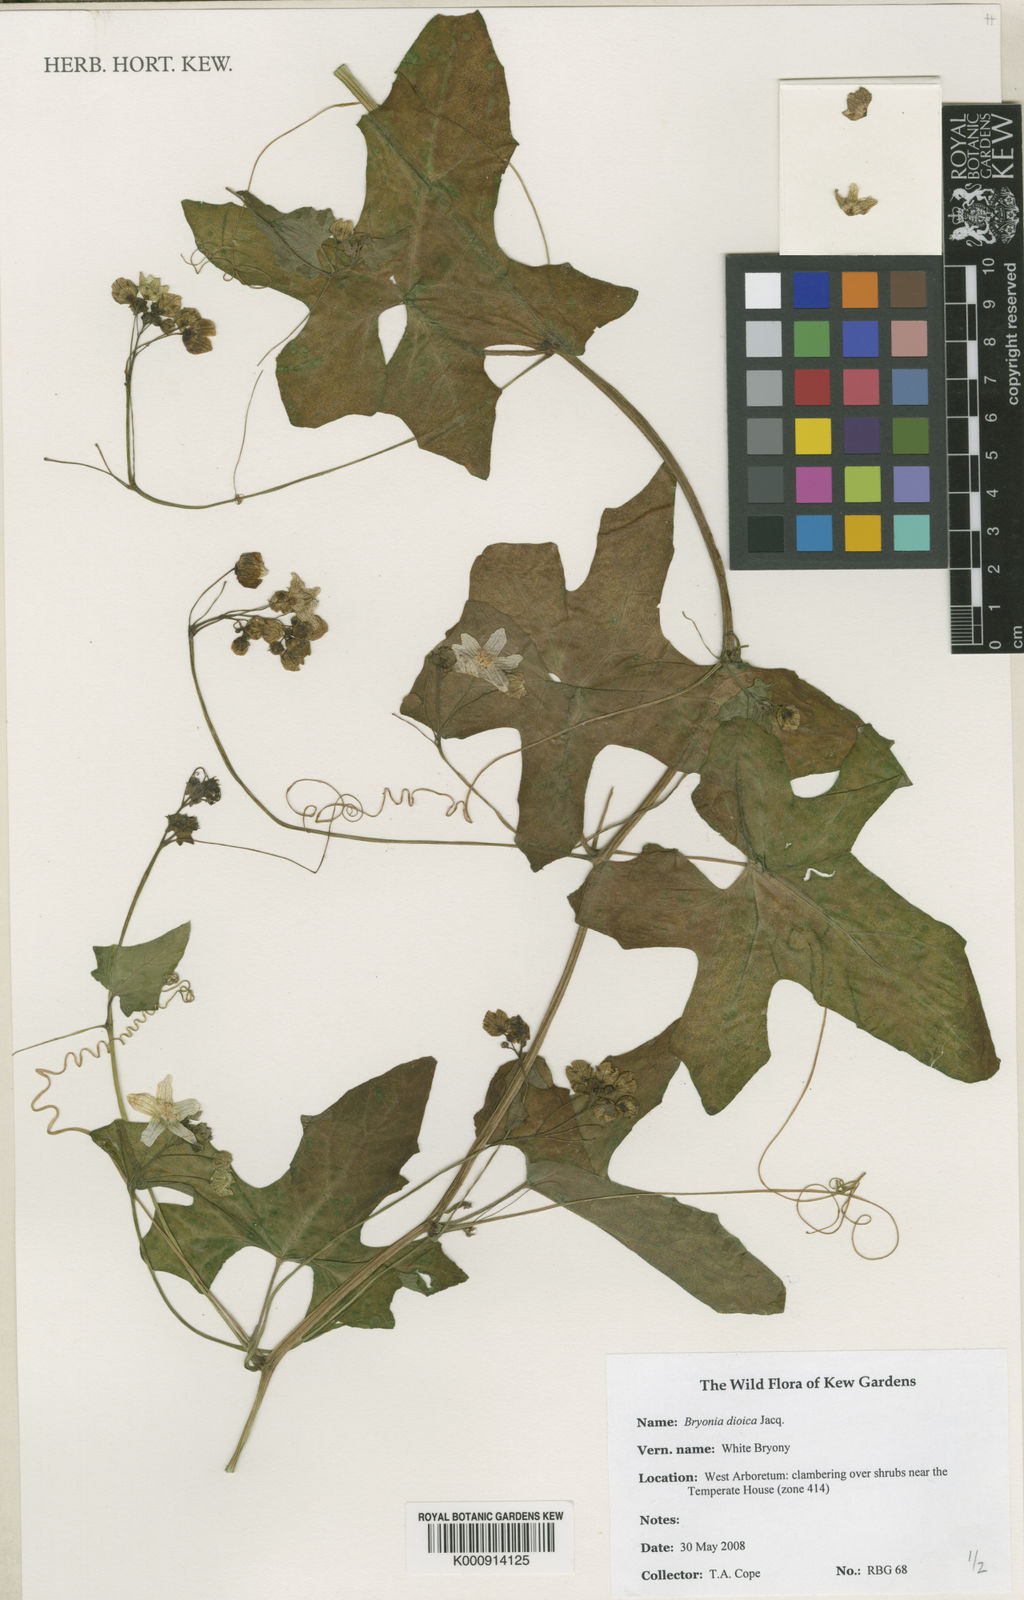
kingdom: Plantae
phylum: Tracheophyta
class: Magnoliopsida
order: Cucurbitales
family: Cucurbitaceae
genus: Bryonia
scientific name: Bryonia dioica
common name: White bryony
